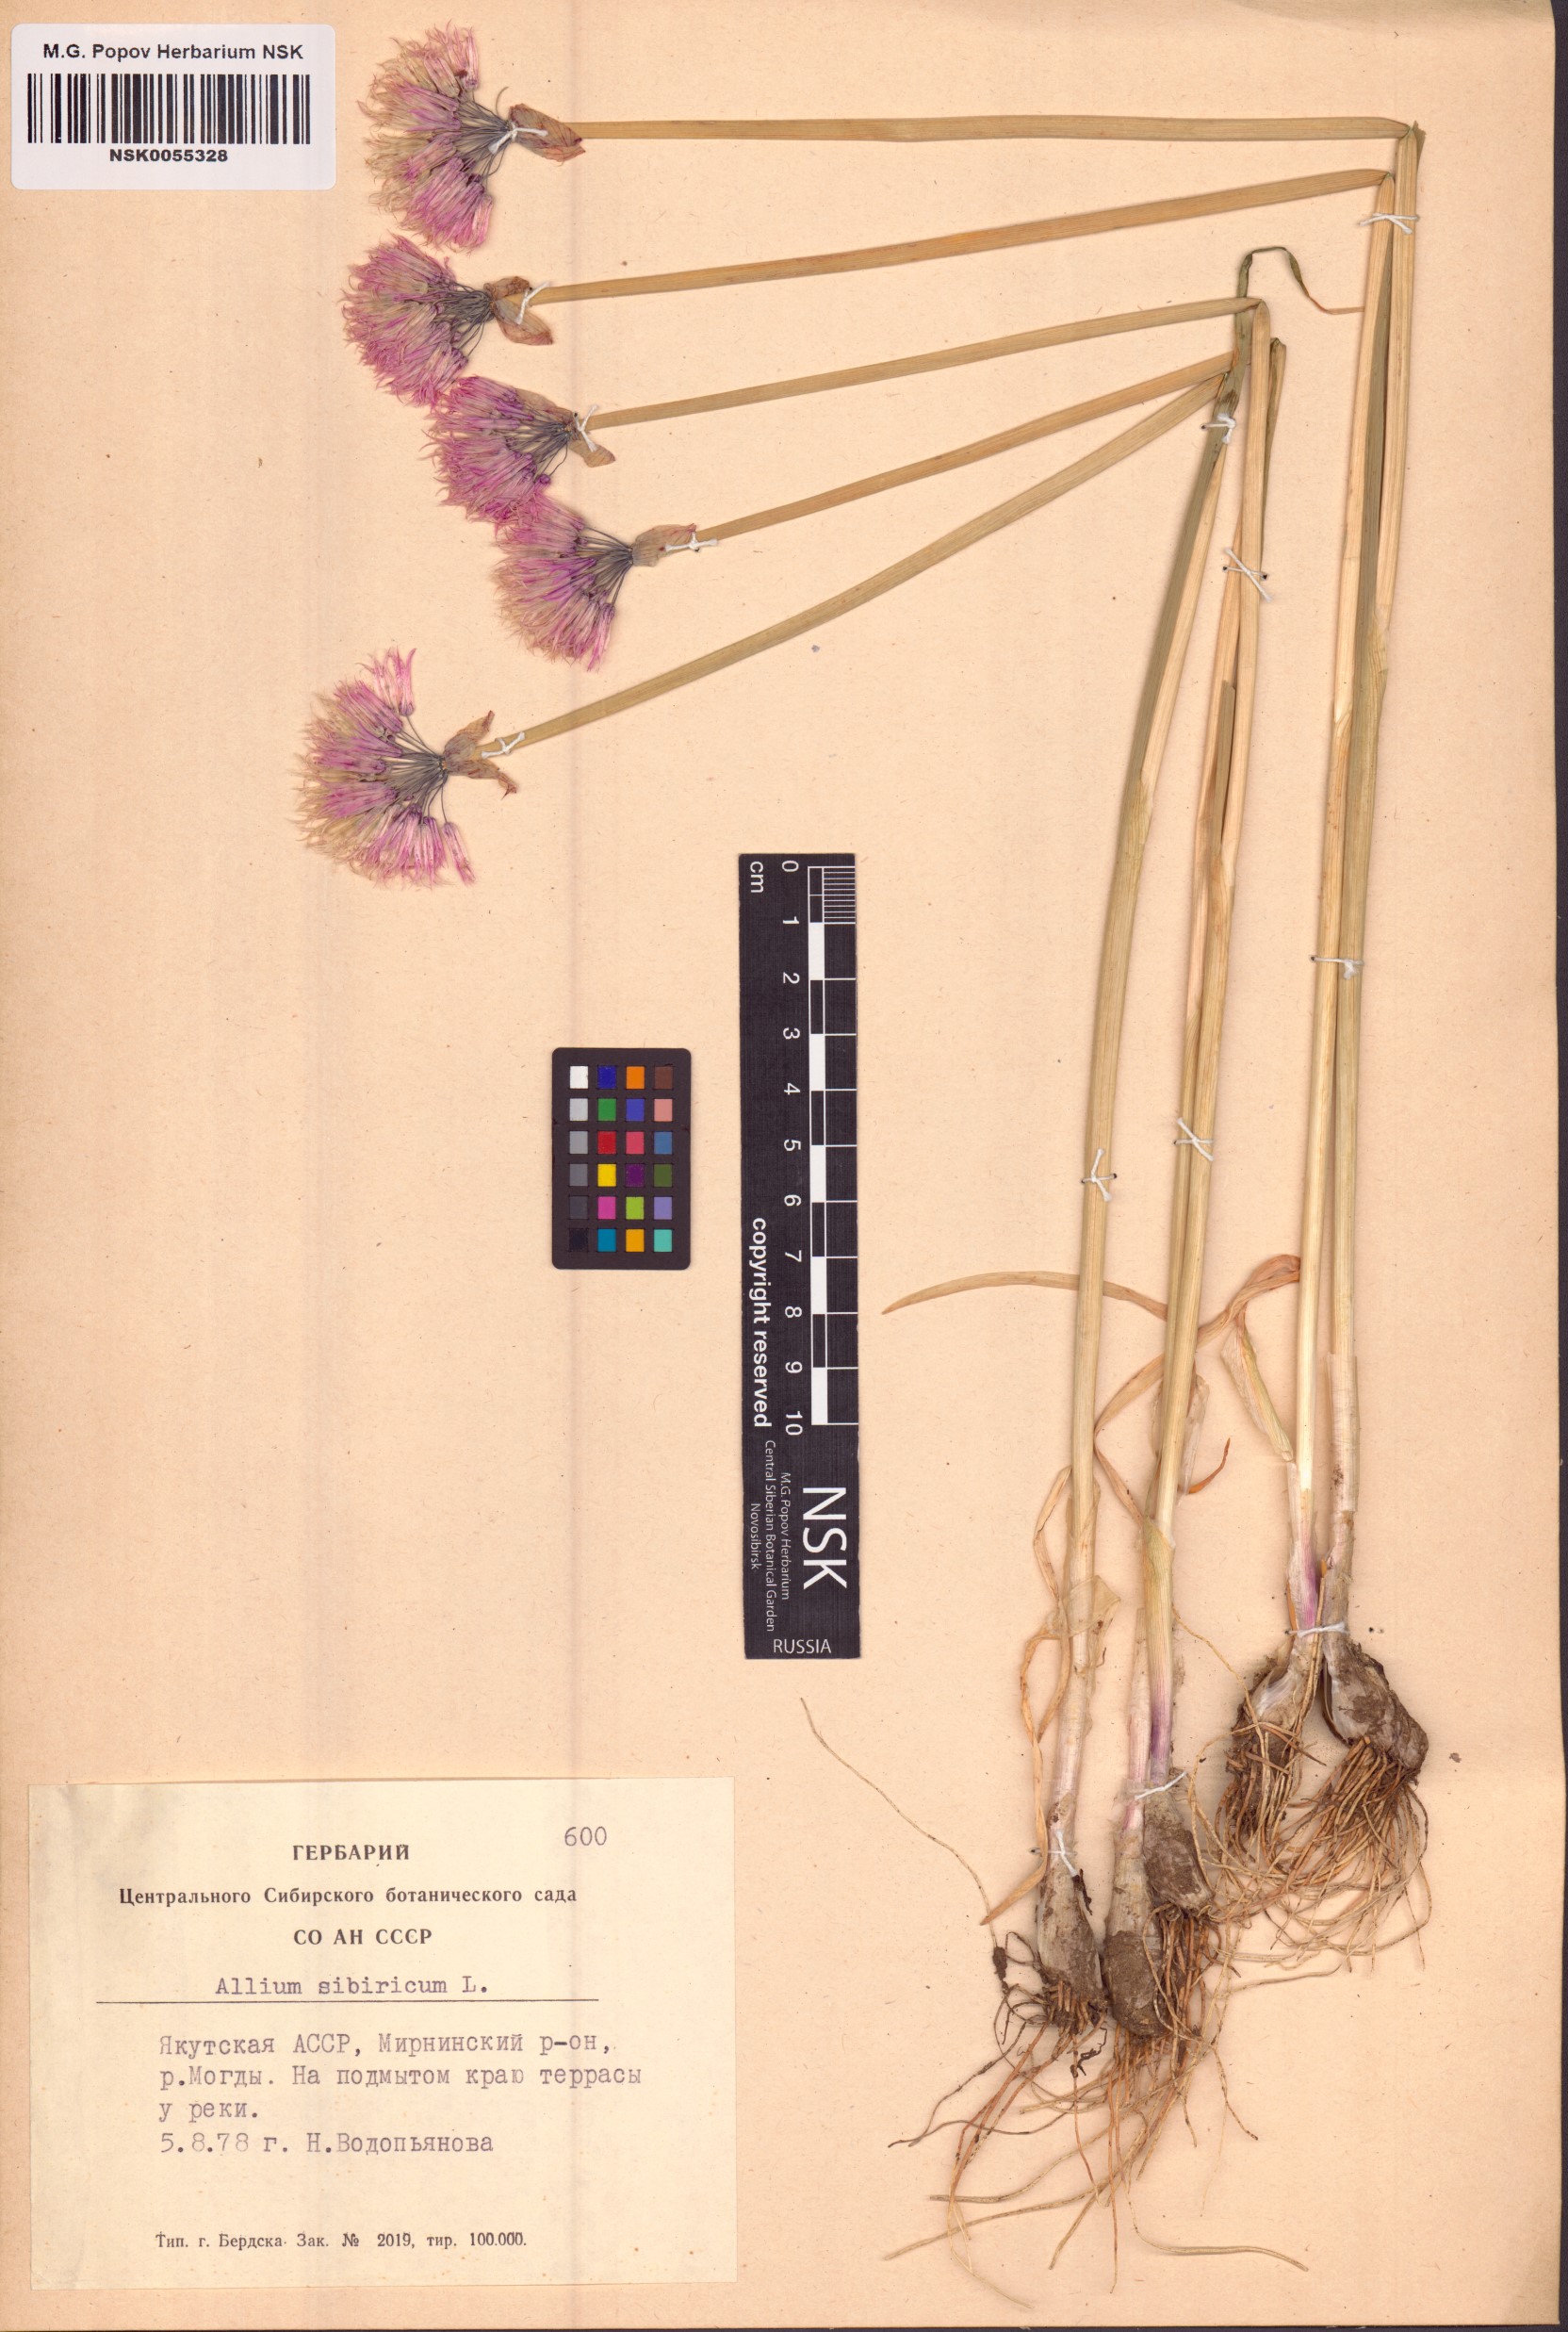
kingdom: Plantae
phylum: Tracheophyta
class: Liliopsida
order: Asparagales
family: Amaryllidaceae
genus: Allium
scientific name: Allium schoenoprasum
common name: Chives
